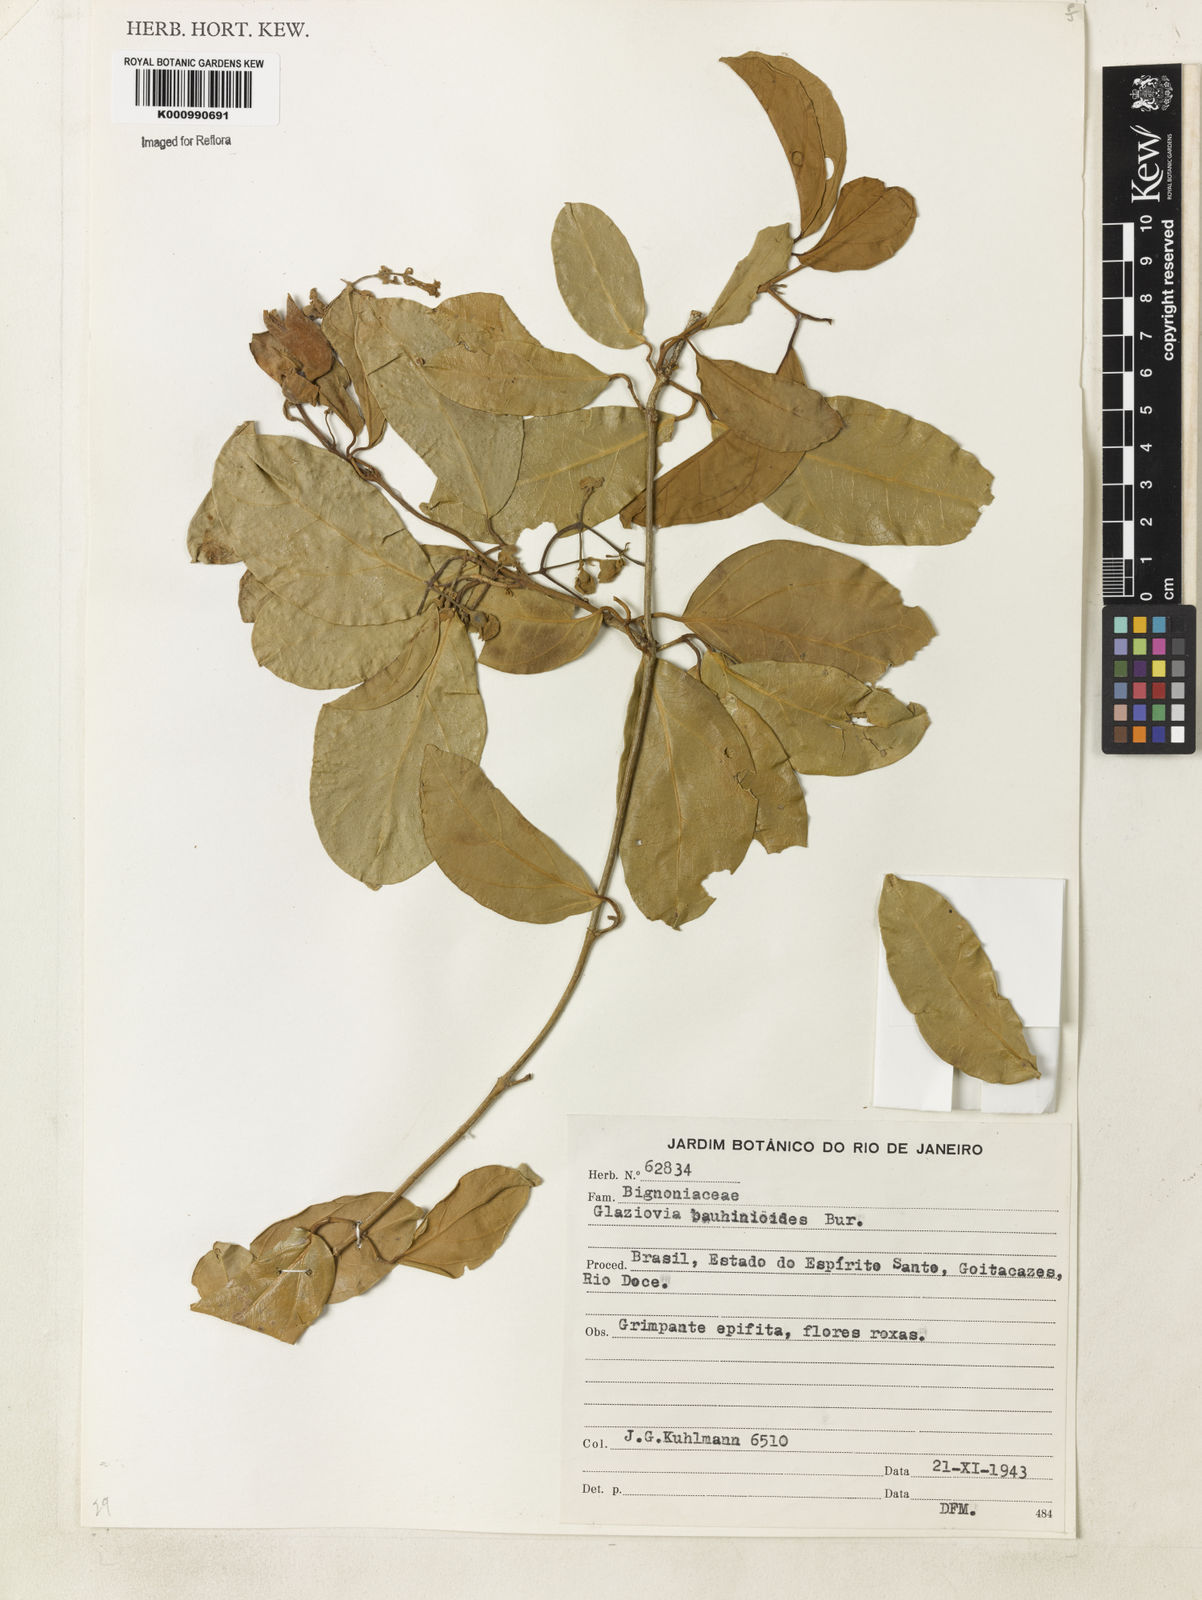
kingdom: Plantae
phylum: Tracheophyta
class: Magnoliopsida
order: Lamiales
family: Bignoniaceae
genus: Amphilophium
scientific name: Amphilophium bauhinioides
